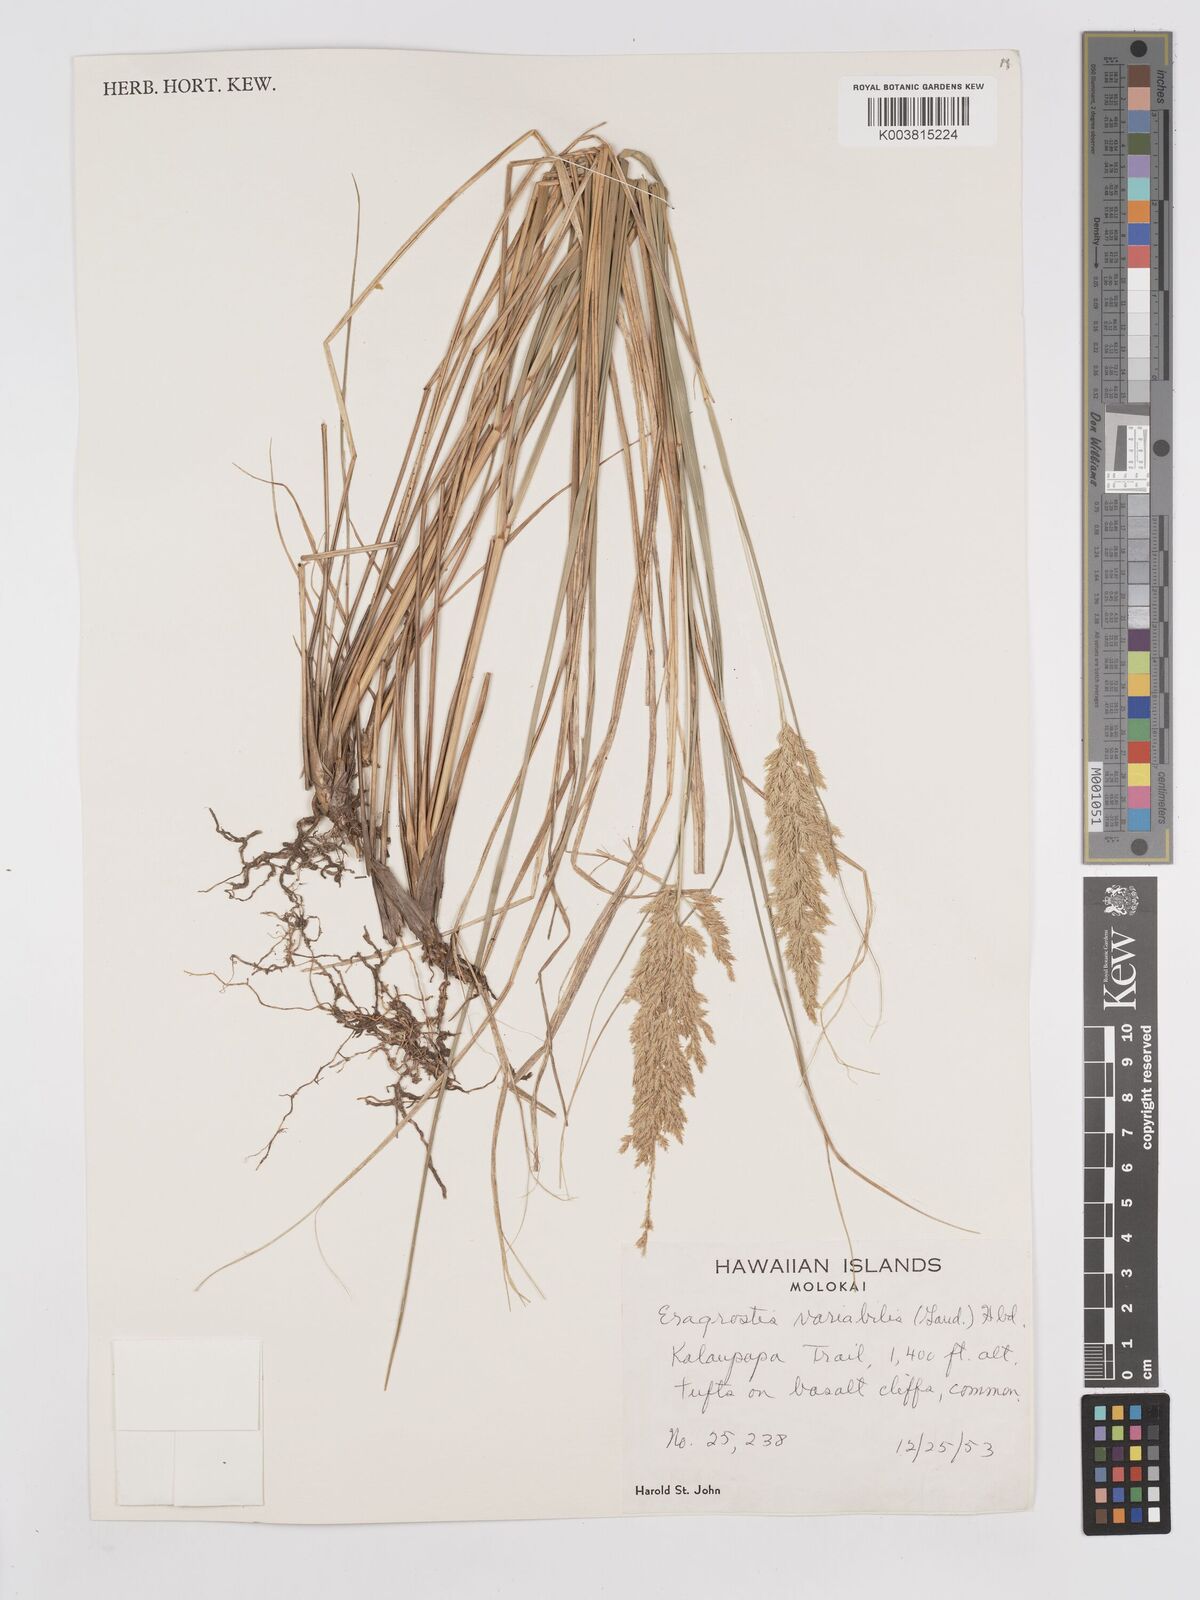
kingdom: Plantae
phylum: Tracheophyta
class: Liliopsida
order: Poales
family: Poaceae
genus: Eragrostis
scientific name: Eragrostis variabilis
